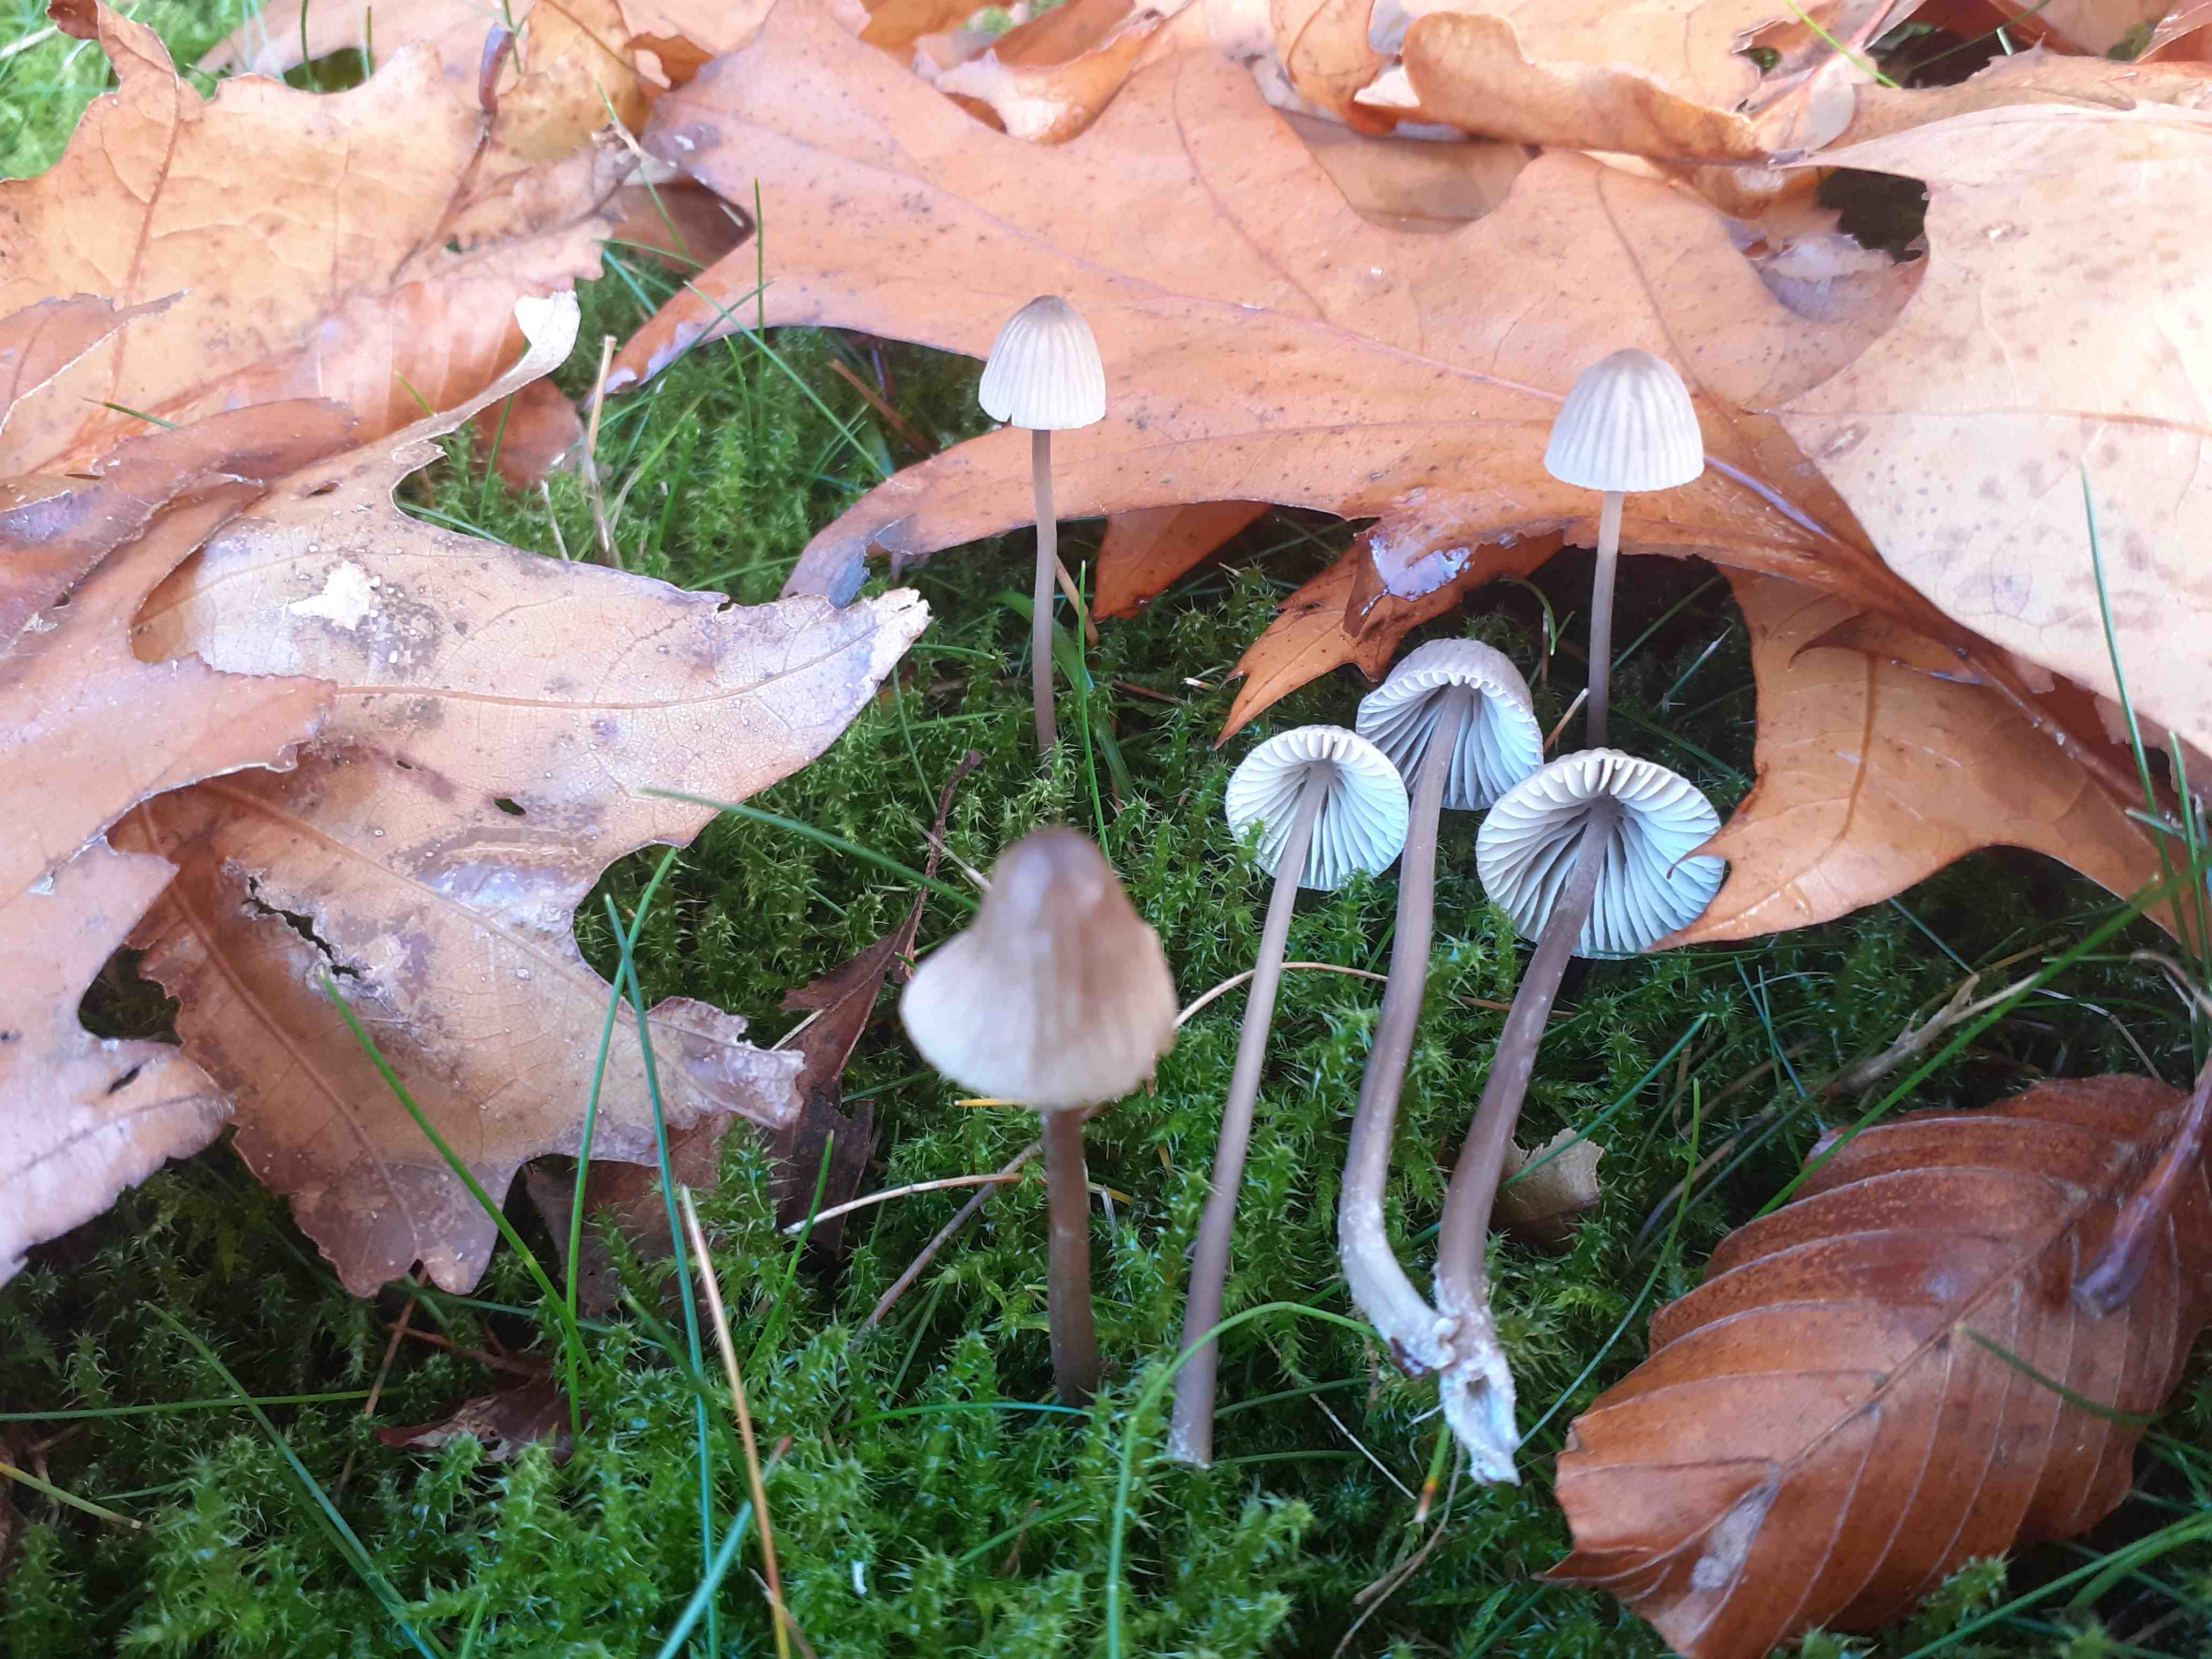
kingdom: Fungi
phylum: Basidiomycota
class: Agaricomycetes
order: Agaricales
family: Mycenaceae
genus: Mycena
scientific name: Mycena galopus
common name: hvidmælket huesvamp
